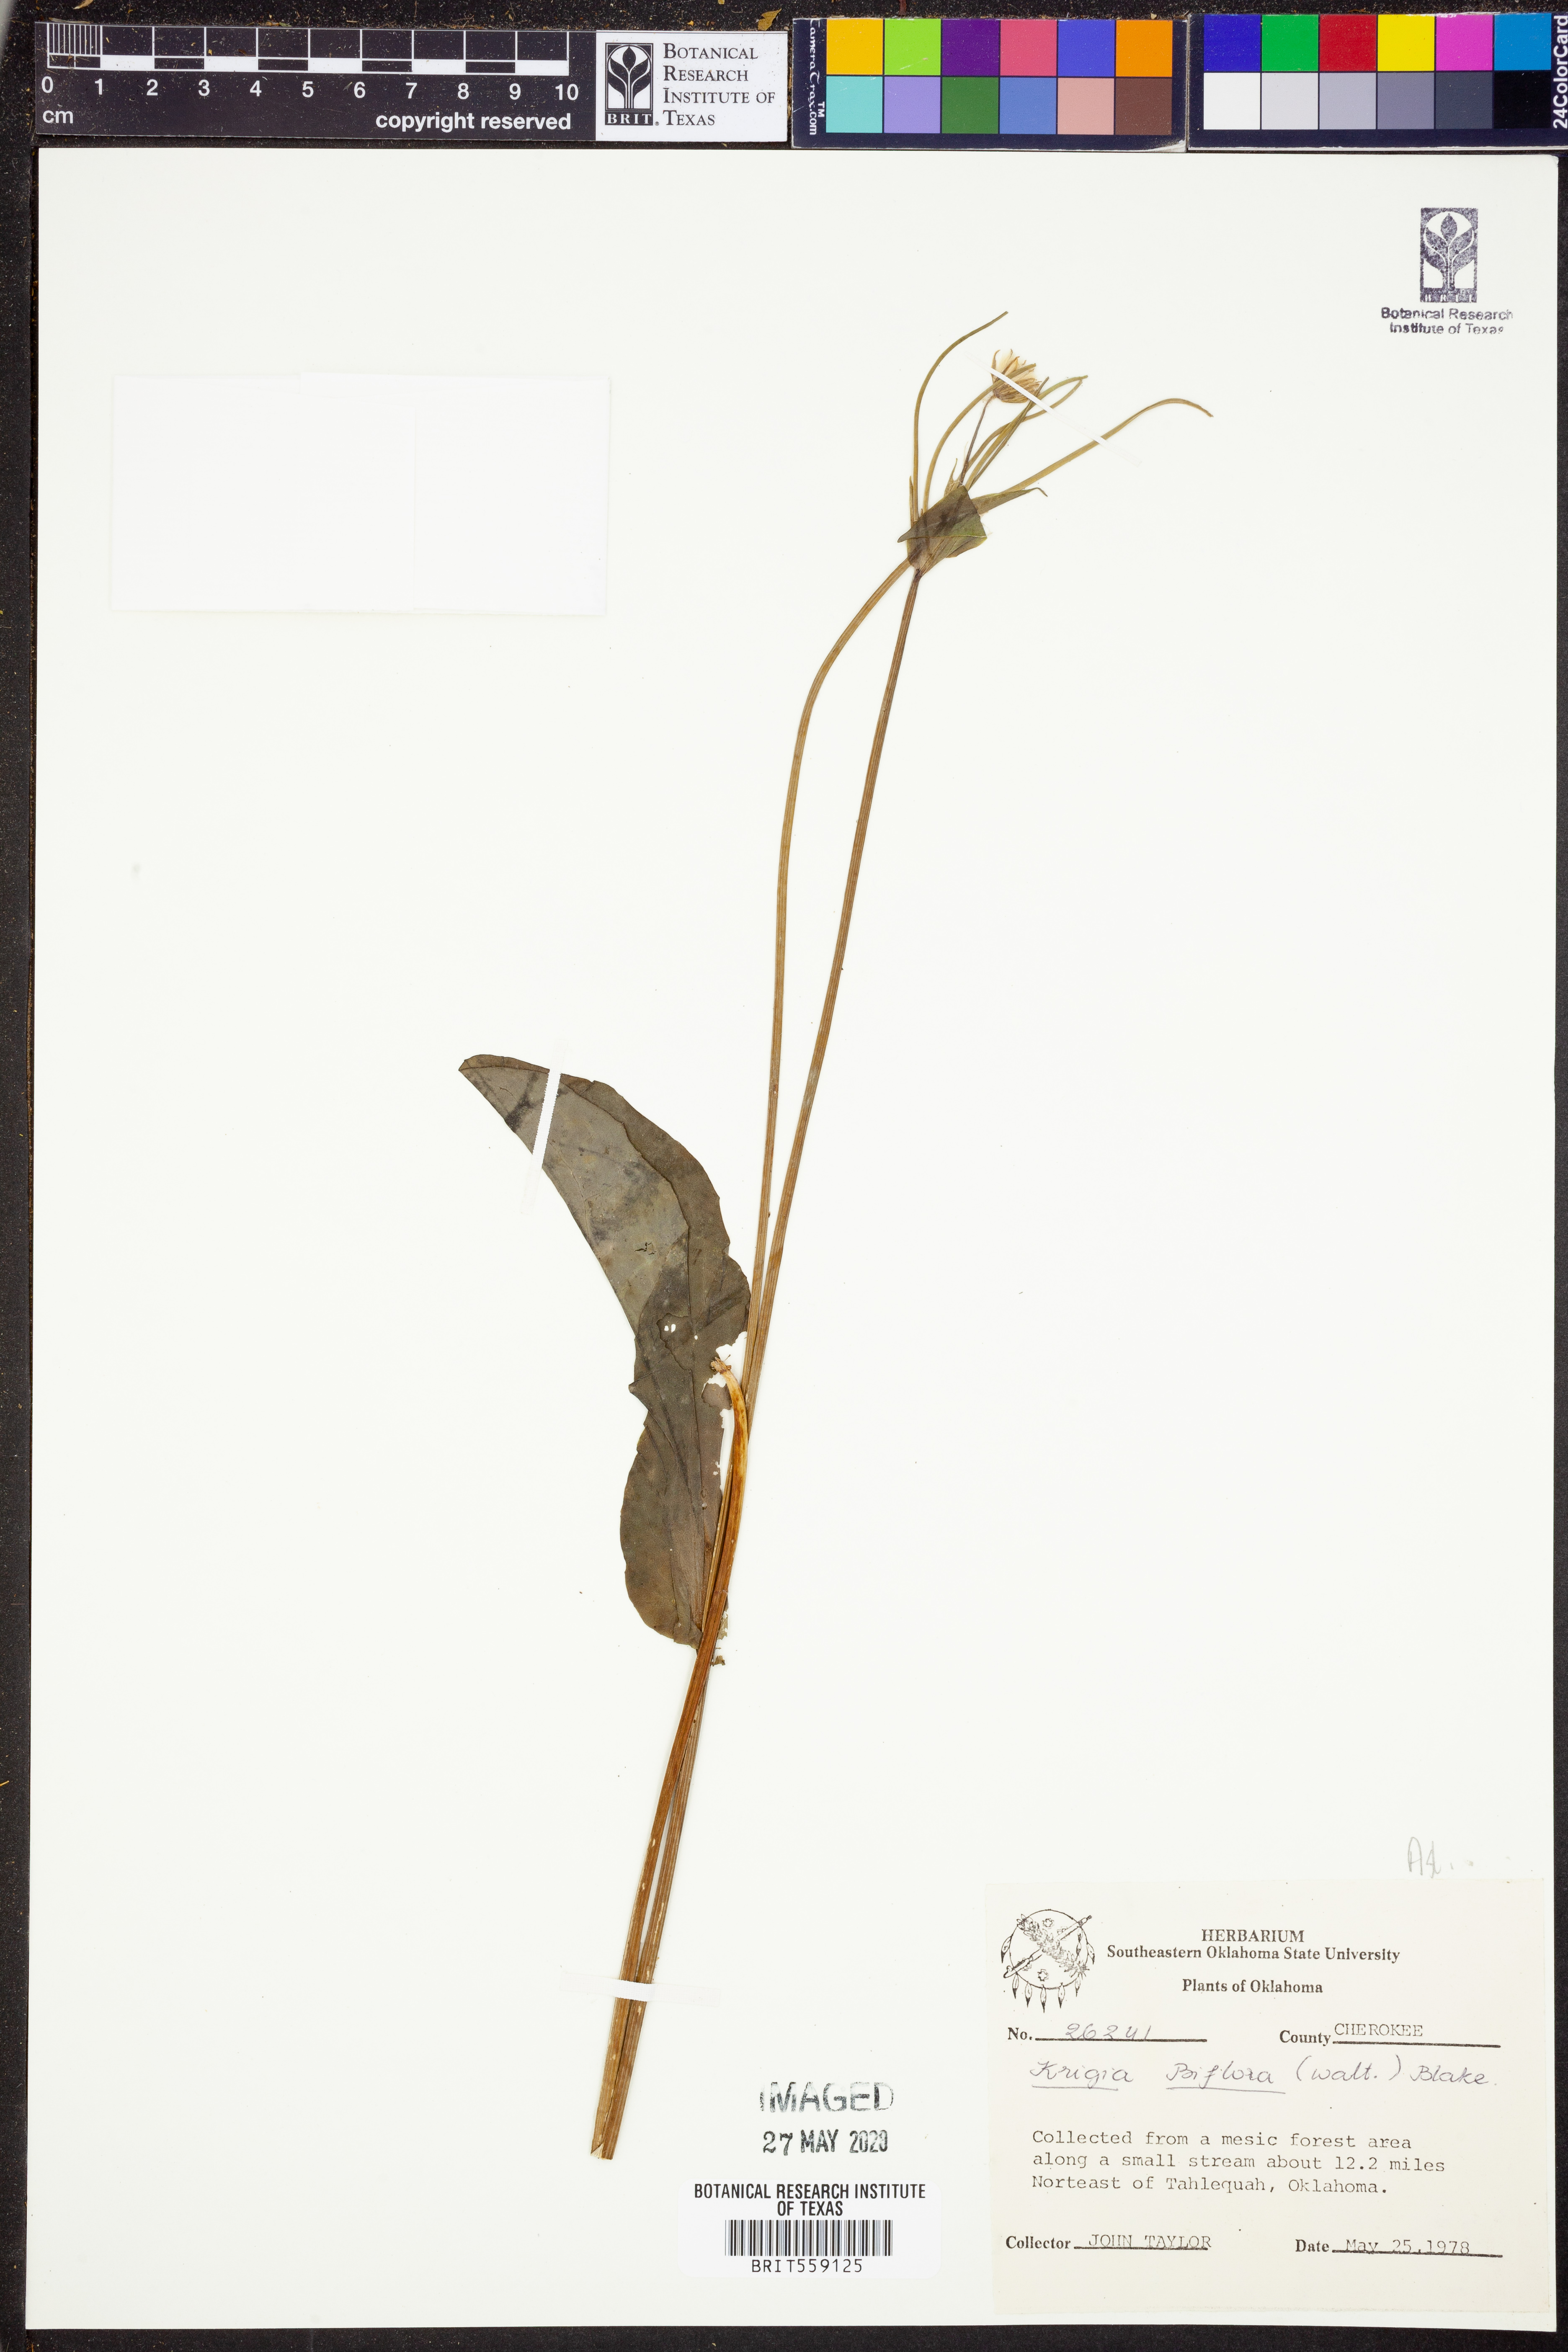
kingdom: Plantae
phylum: Tracheophyta
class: Magnoliopsida
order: Asterales
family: Asteraceae
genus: Krigia
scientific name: Krigia biflora
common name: Orange dwarf-dandelion
